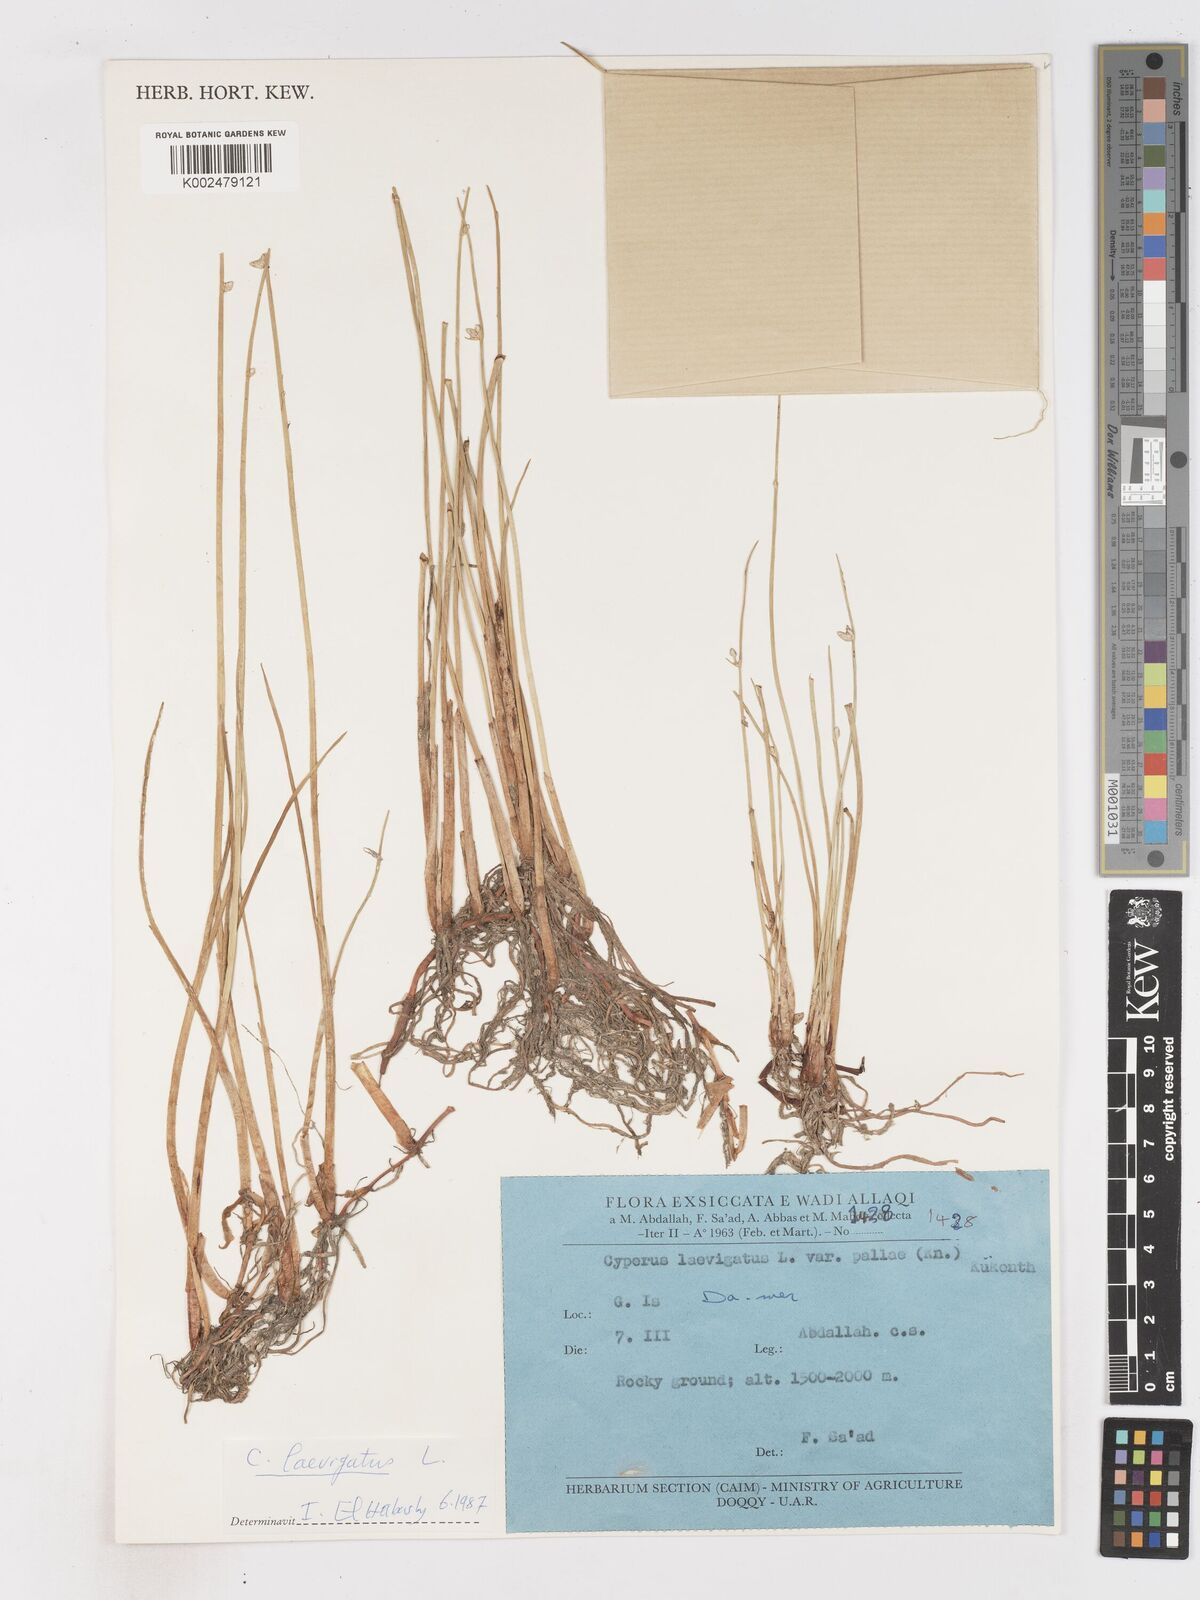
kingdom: Plantae
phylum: Tracheophyta
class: Liliopsida
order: Poales
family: Cyperaceae
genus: Cyperus
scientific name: Cyperus laevigatus
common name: Smooth flat sedge
